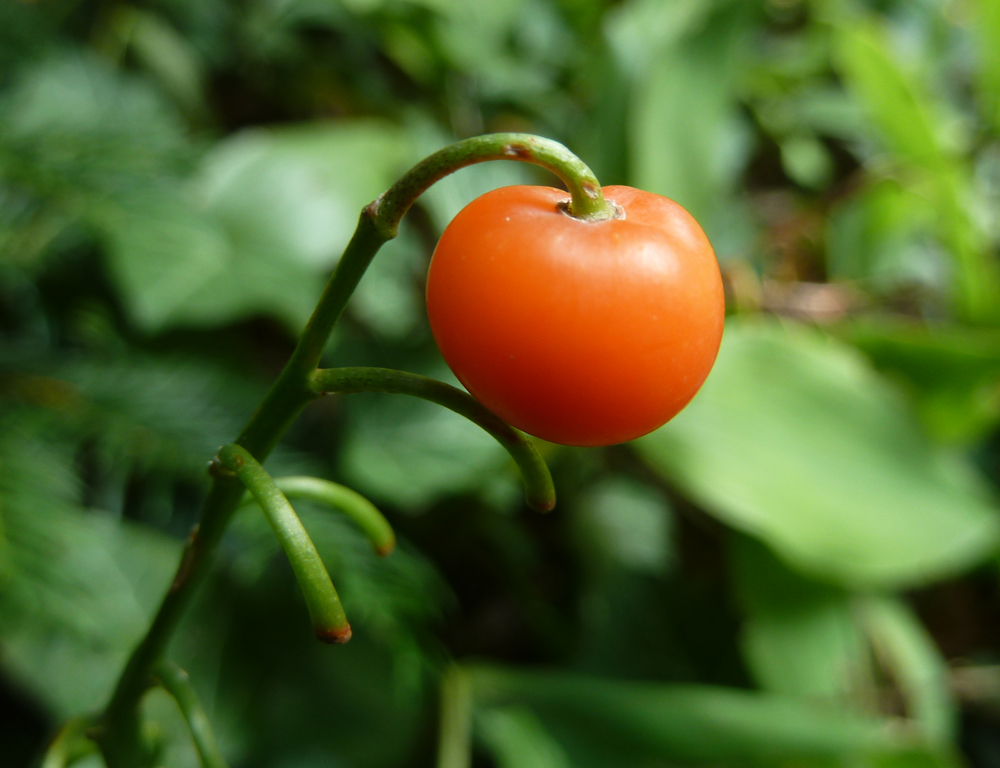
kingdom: Plantae
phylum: Tracheophyta
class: Liliopsida
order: Asparagales
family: Asparagaceae
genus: Convallaria
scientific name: Convallaria majalis
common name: Lily-of-the-valley
